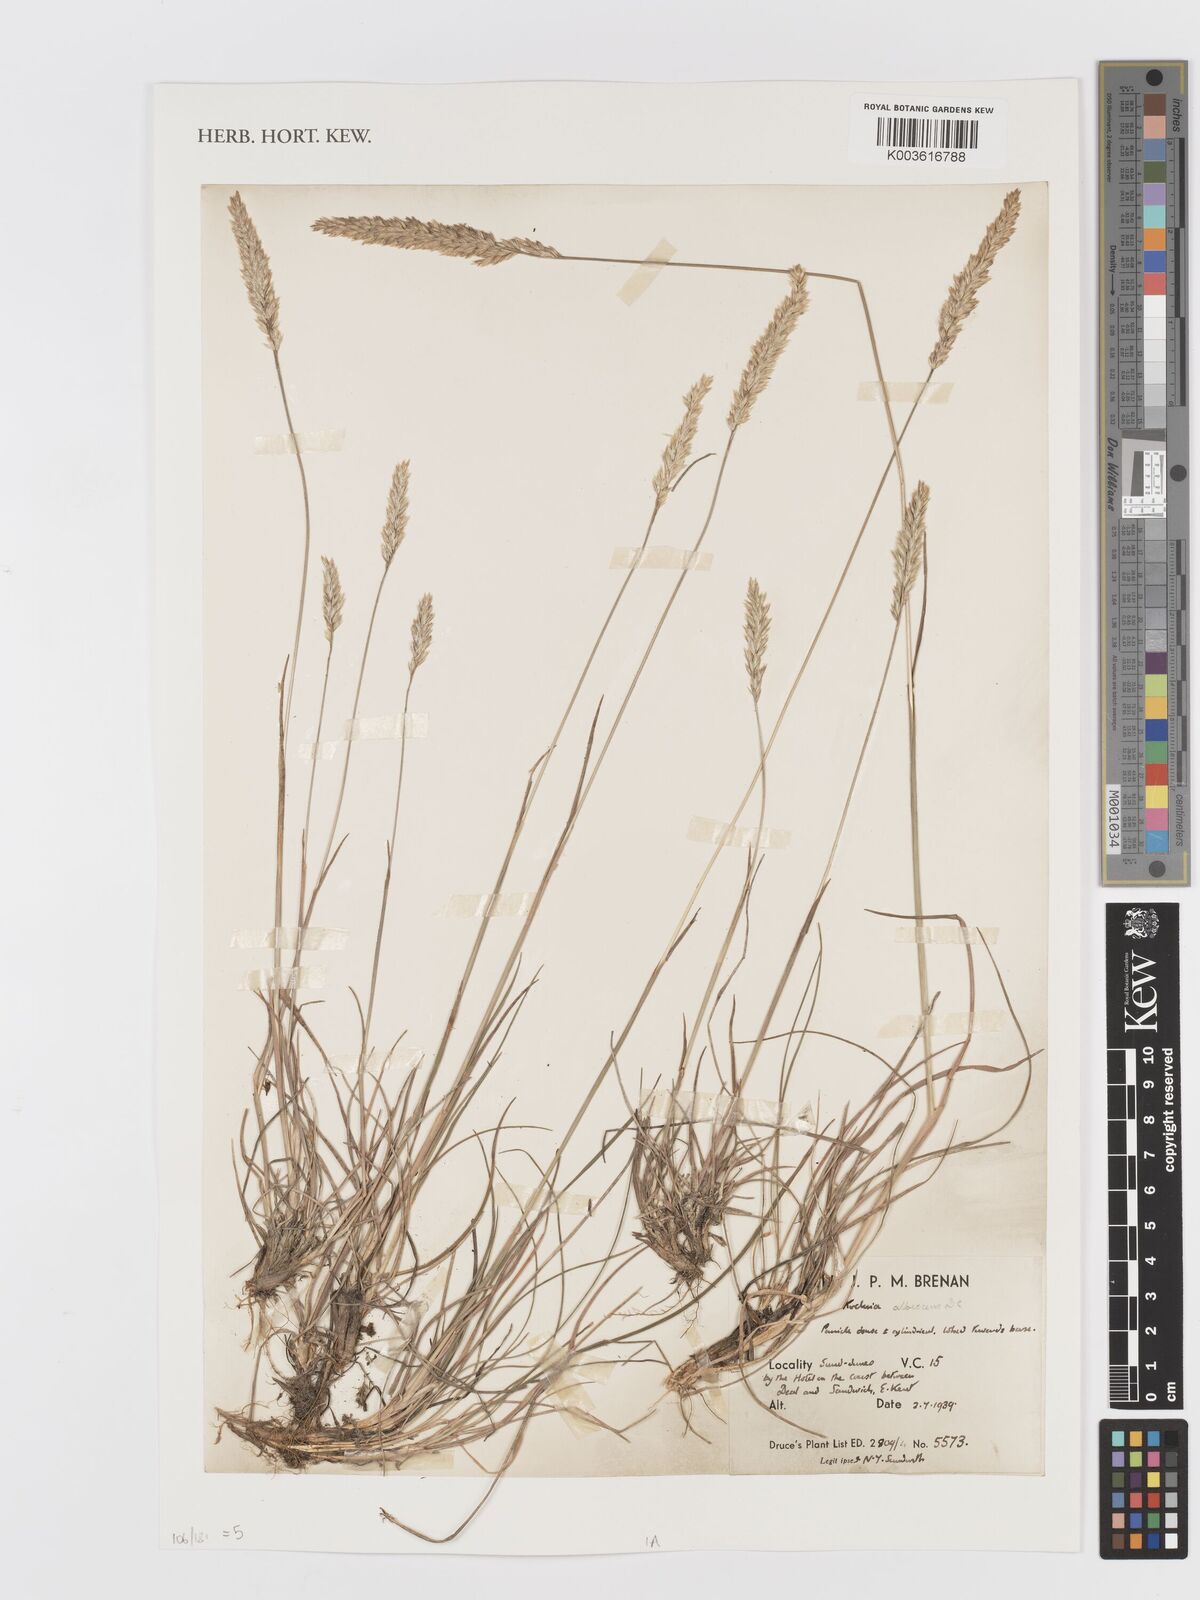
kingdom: Plantae
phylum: Tracheophyta
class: Liliopsida
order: Poales
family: Poaceae
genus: Koeleria
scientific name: Koeleria macrantha
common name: Crested hair-grass
